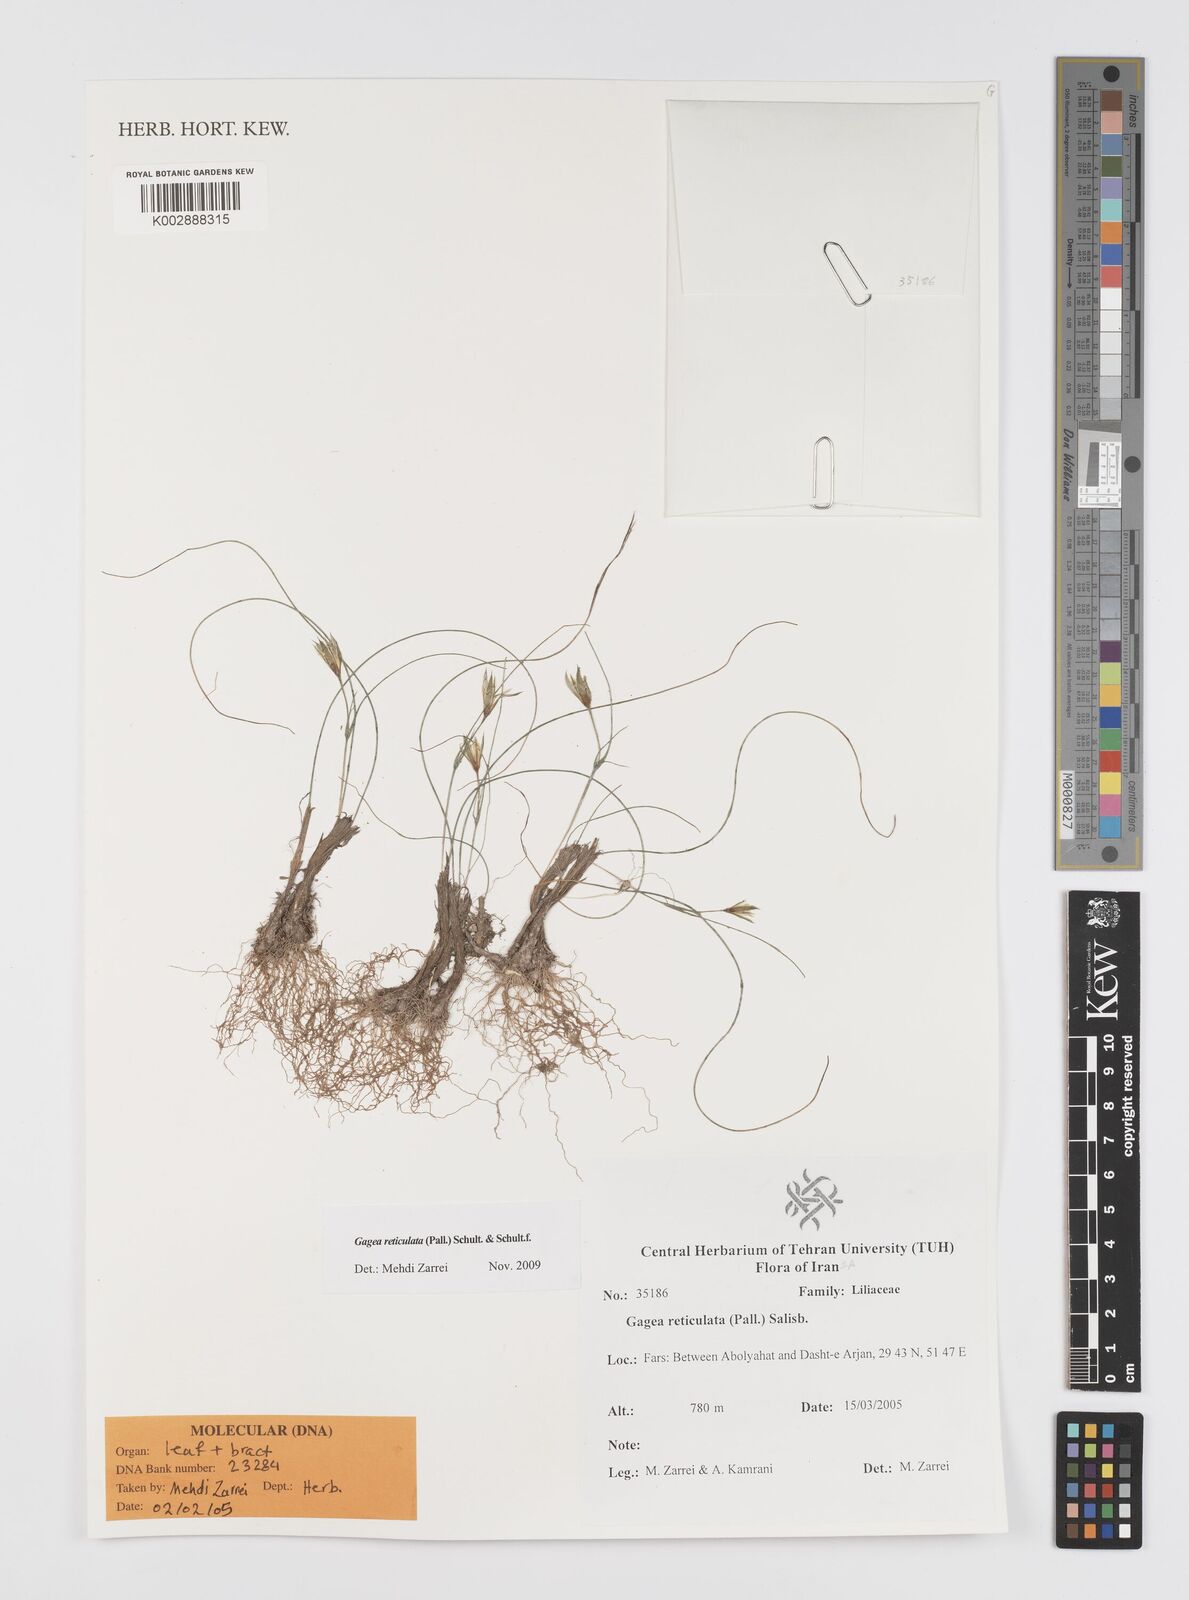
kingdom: Plantae
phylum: Tracheophyta
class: Liliopsida
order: Liliales
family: Liliaceae
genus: Gagea
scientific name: Gagea reticulata
